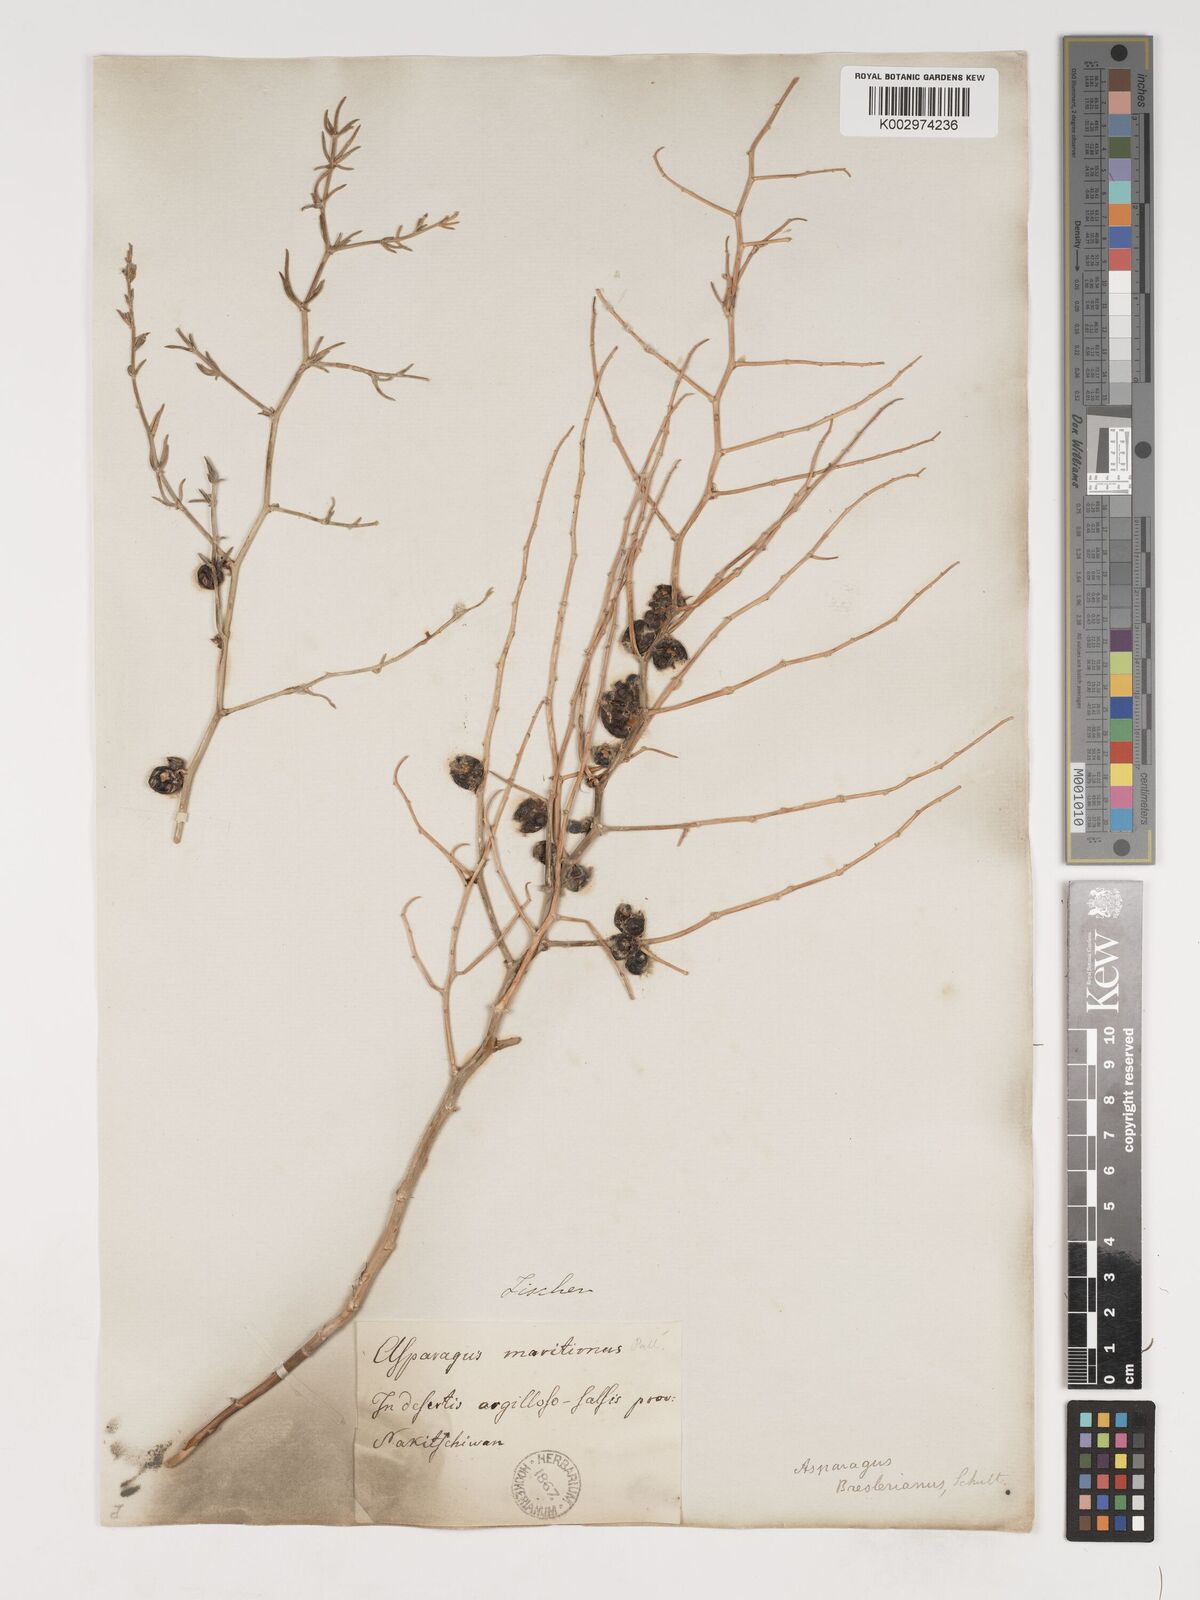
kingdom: Plantae
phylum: Tracheophyta
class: Liliopsida
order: Asparagales
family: Asparagaceae
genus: Asparagus
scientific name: Asparagus breslerianus
